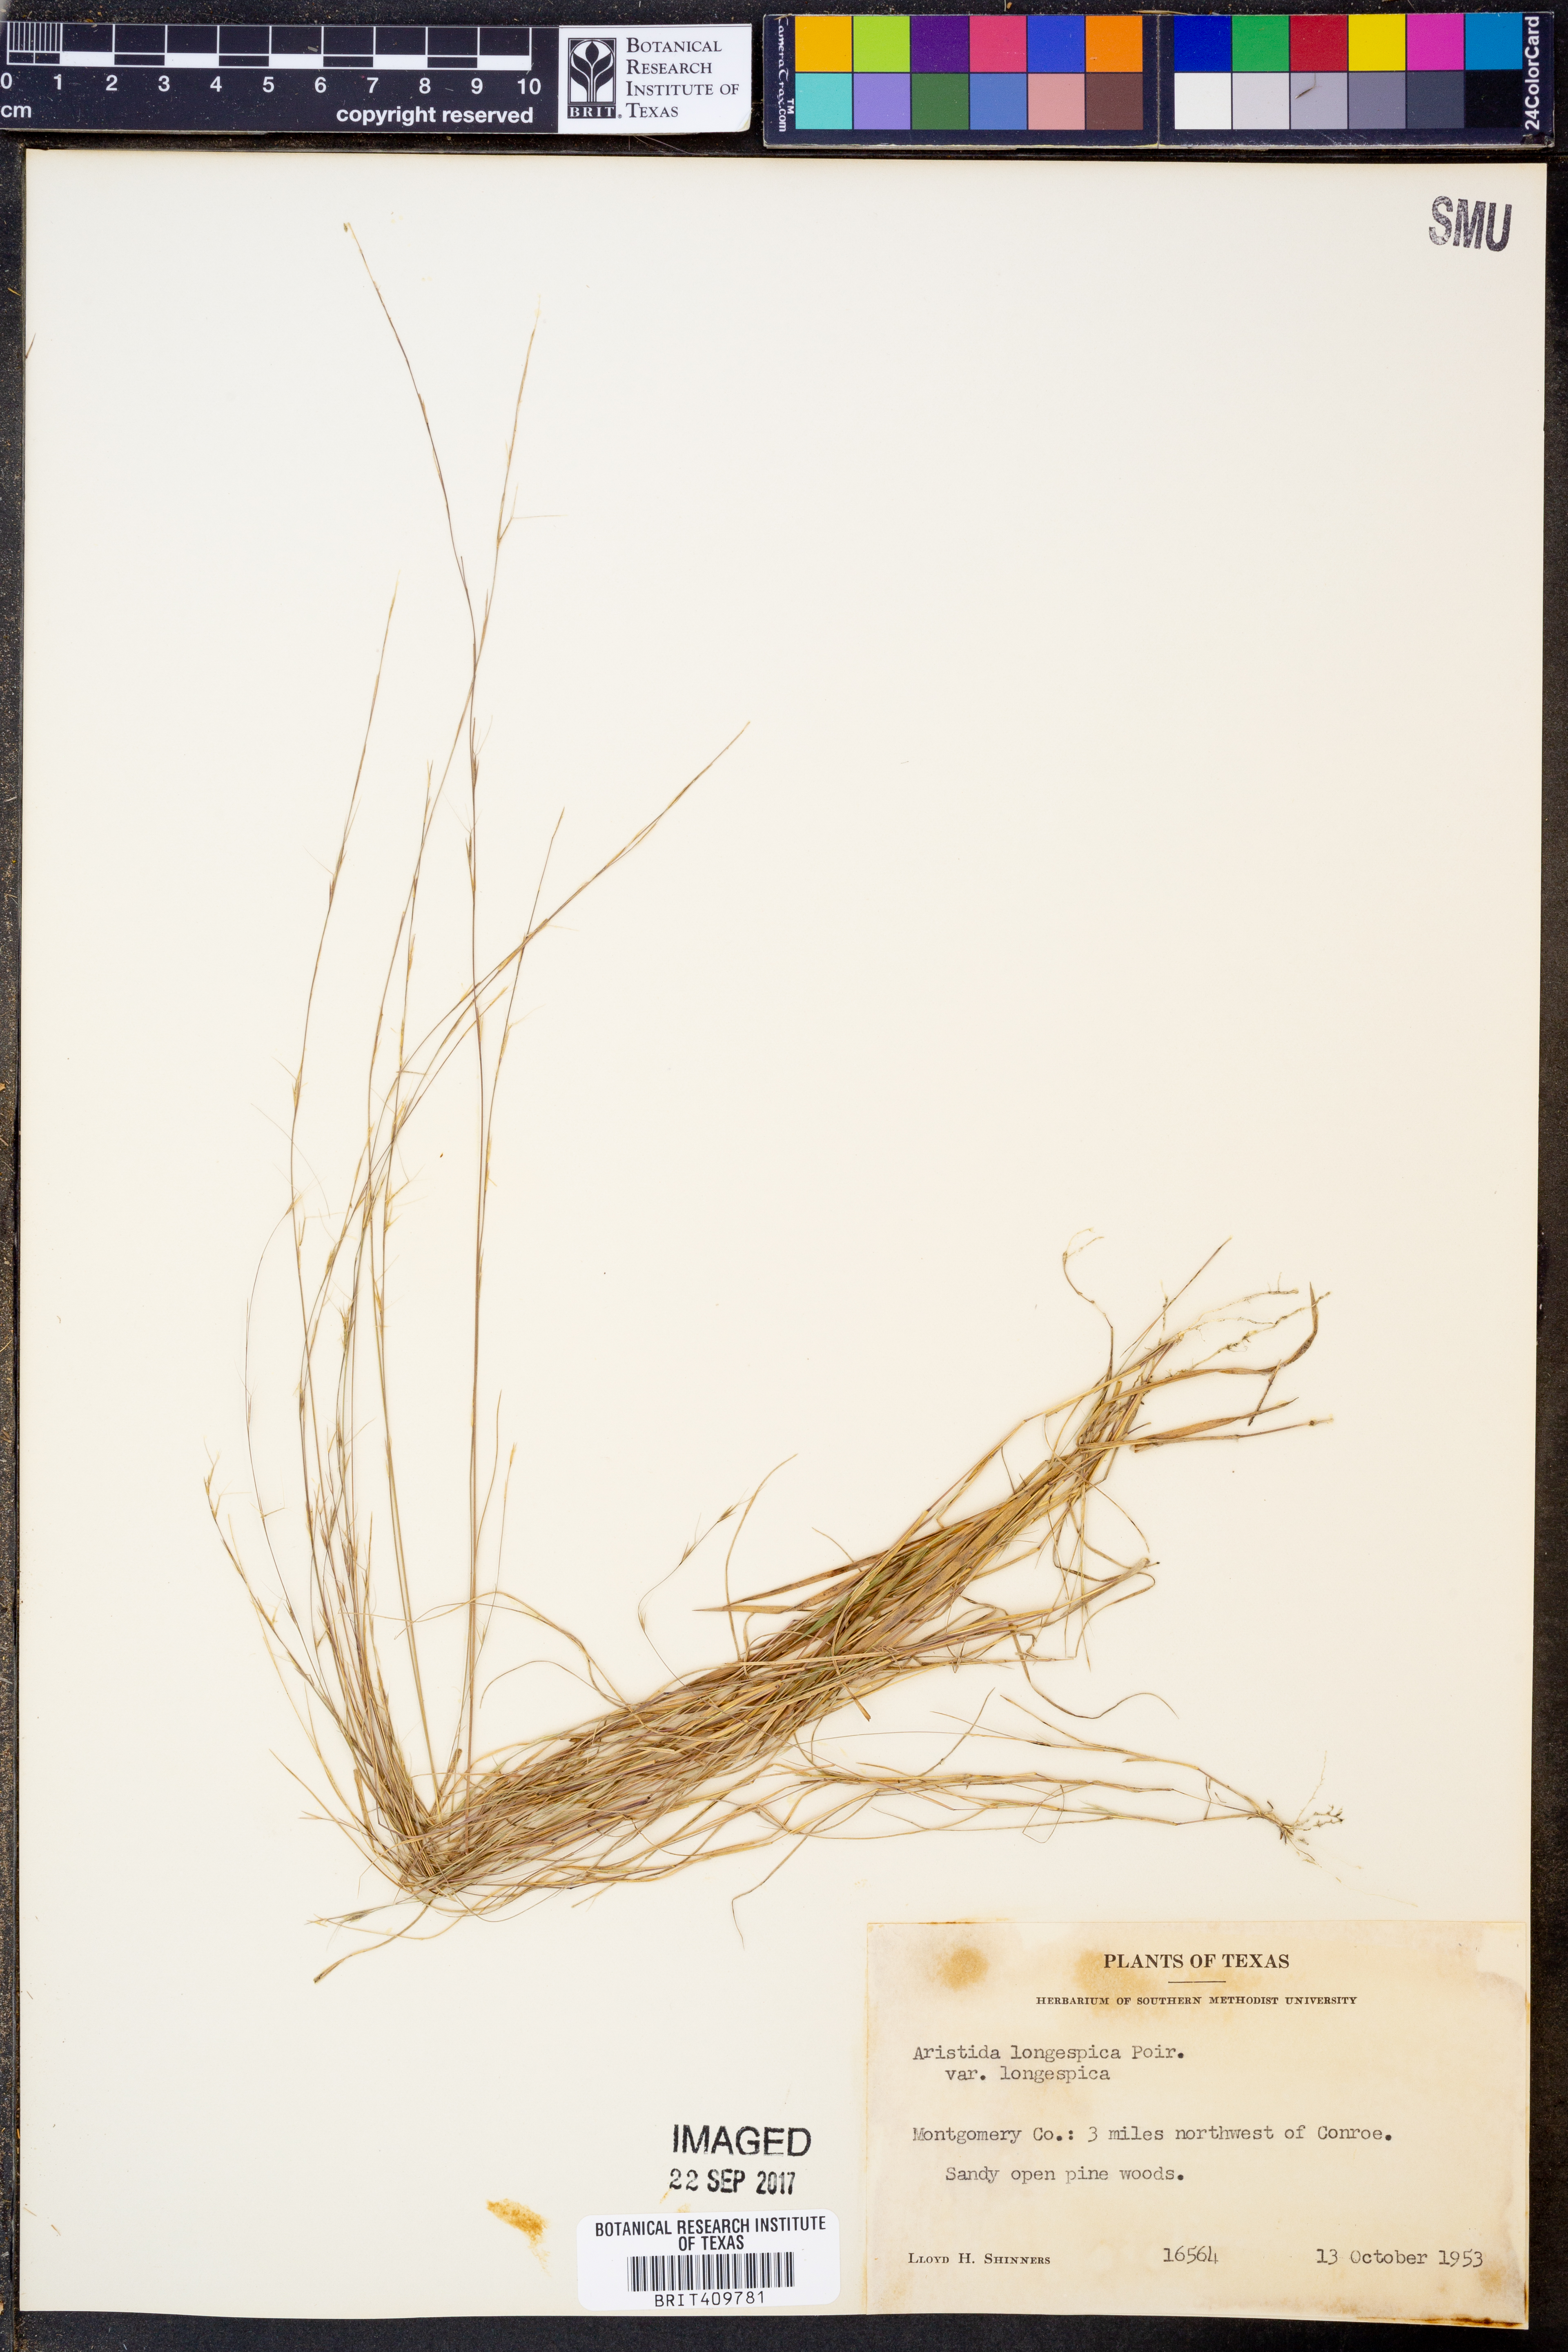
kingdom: Plantae
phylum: Tracheophyta
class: Liliopsida
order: Poales
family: Poaceae
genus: Aristida
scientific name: Aristida longespica
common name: Long-spiked triple-awned grass
